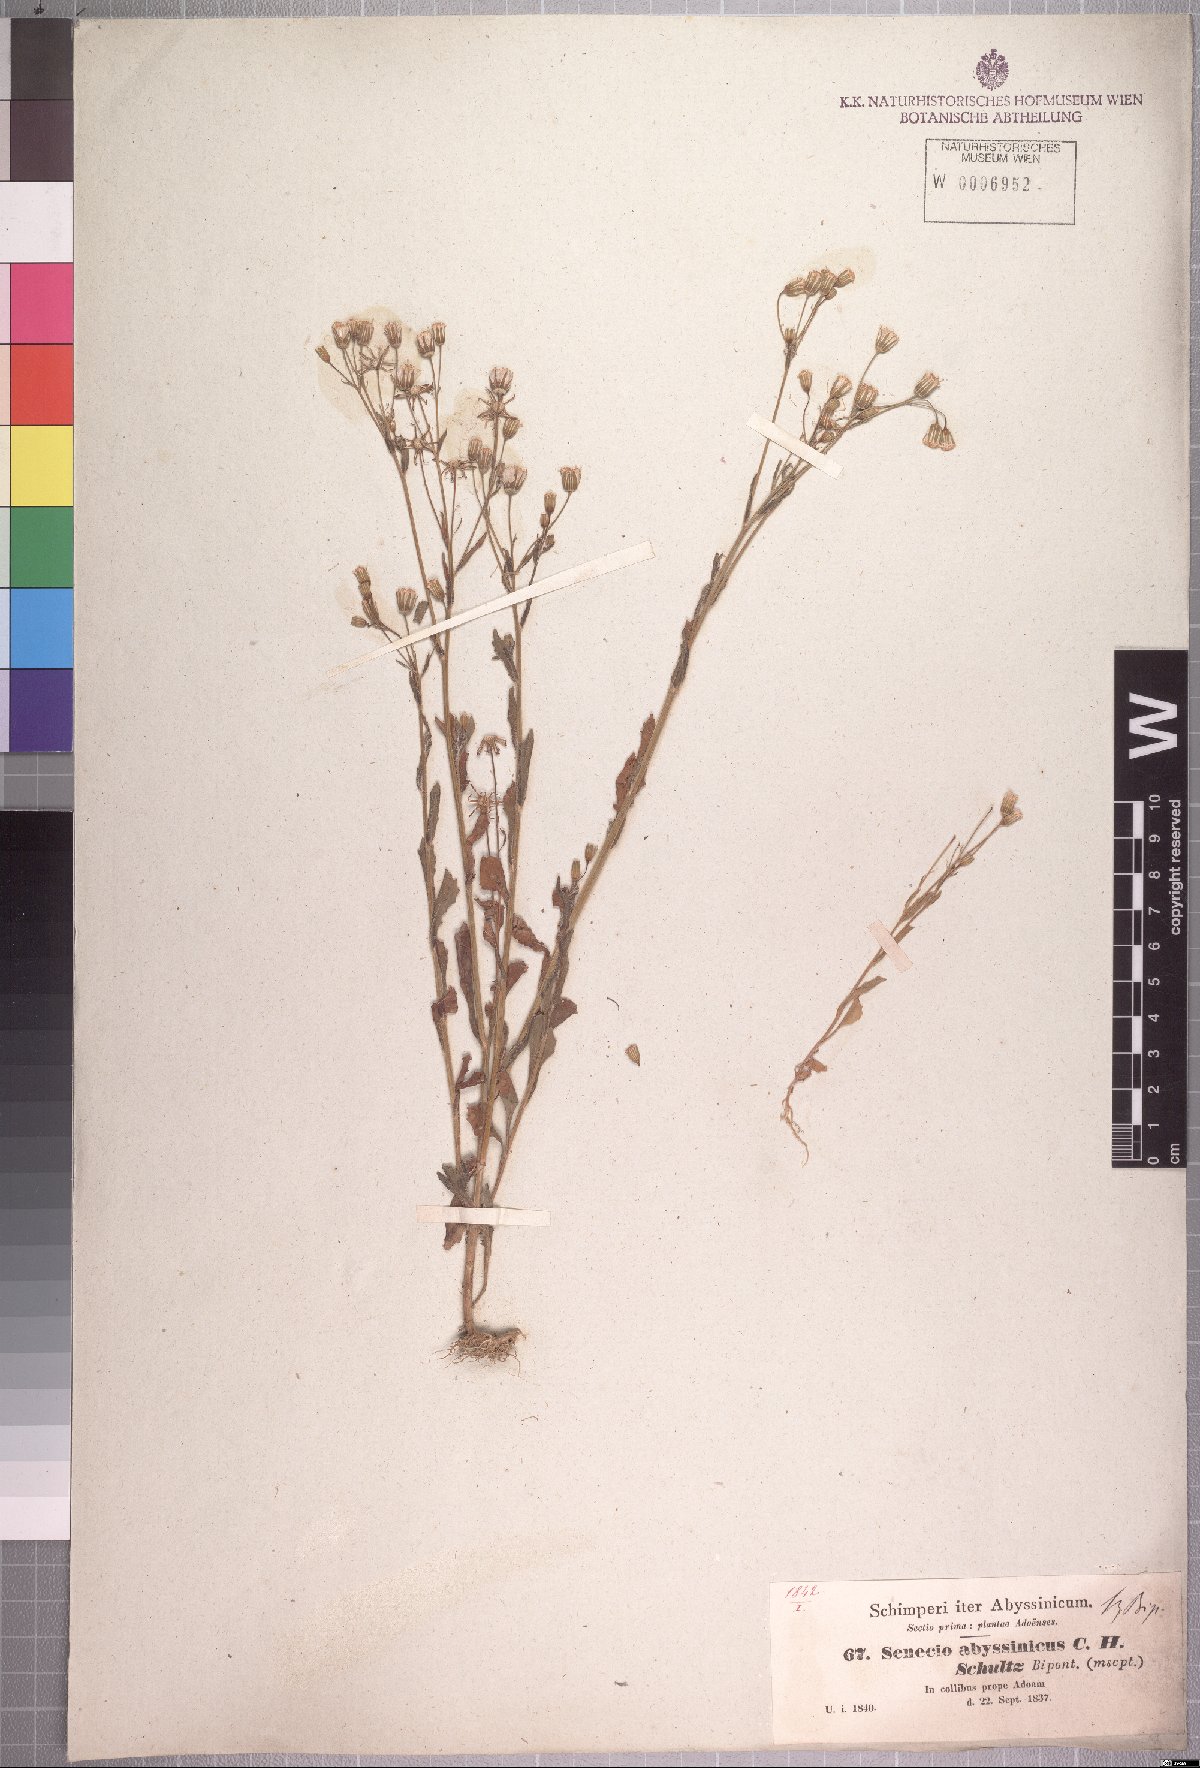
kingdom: Plantae
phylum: Tracheophyta
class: Magnoliopsida
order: Asterales
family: Asteraceae
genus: Emilia
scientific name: Emilia abyssinica
